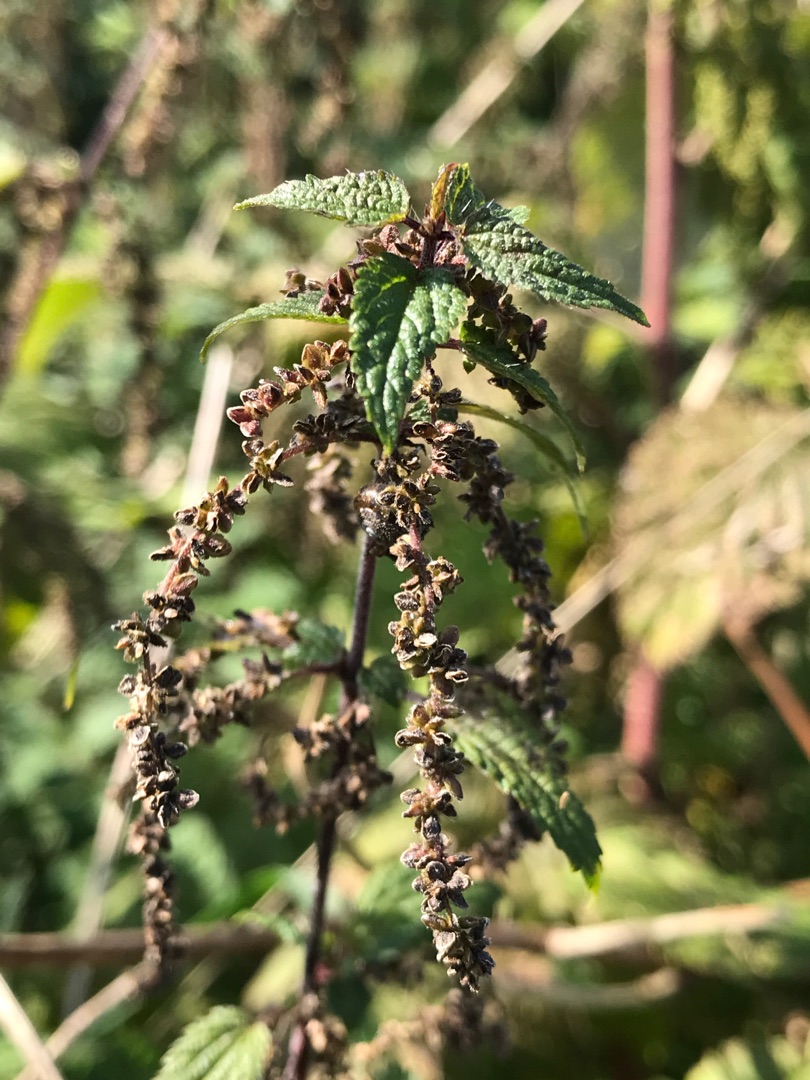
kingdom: Plantae
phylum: Tracheophyta
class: Magnoliopsida
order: Rosales
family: Urticaceae
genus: Urtica
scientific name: Urtica dioica
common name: Stor nælde
